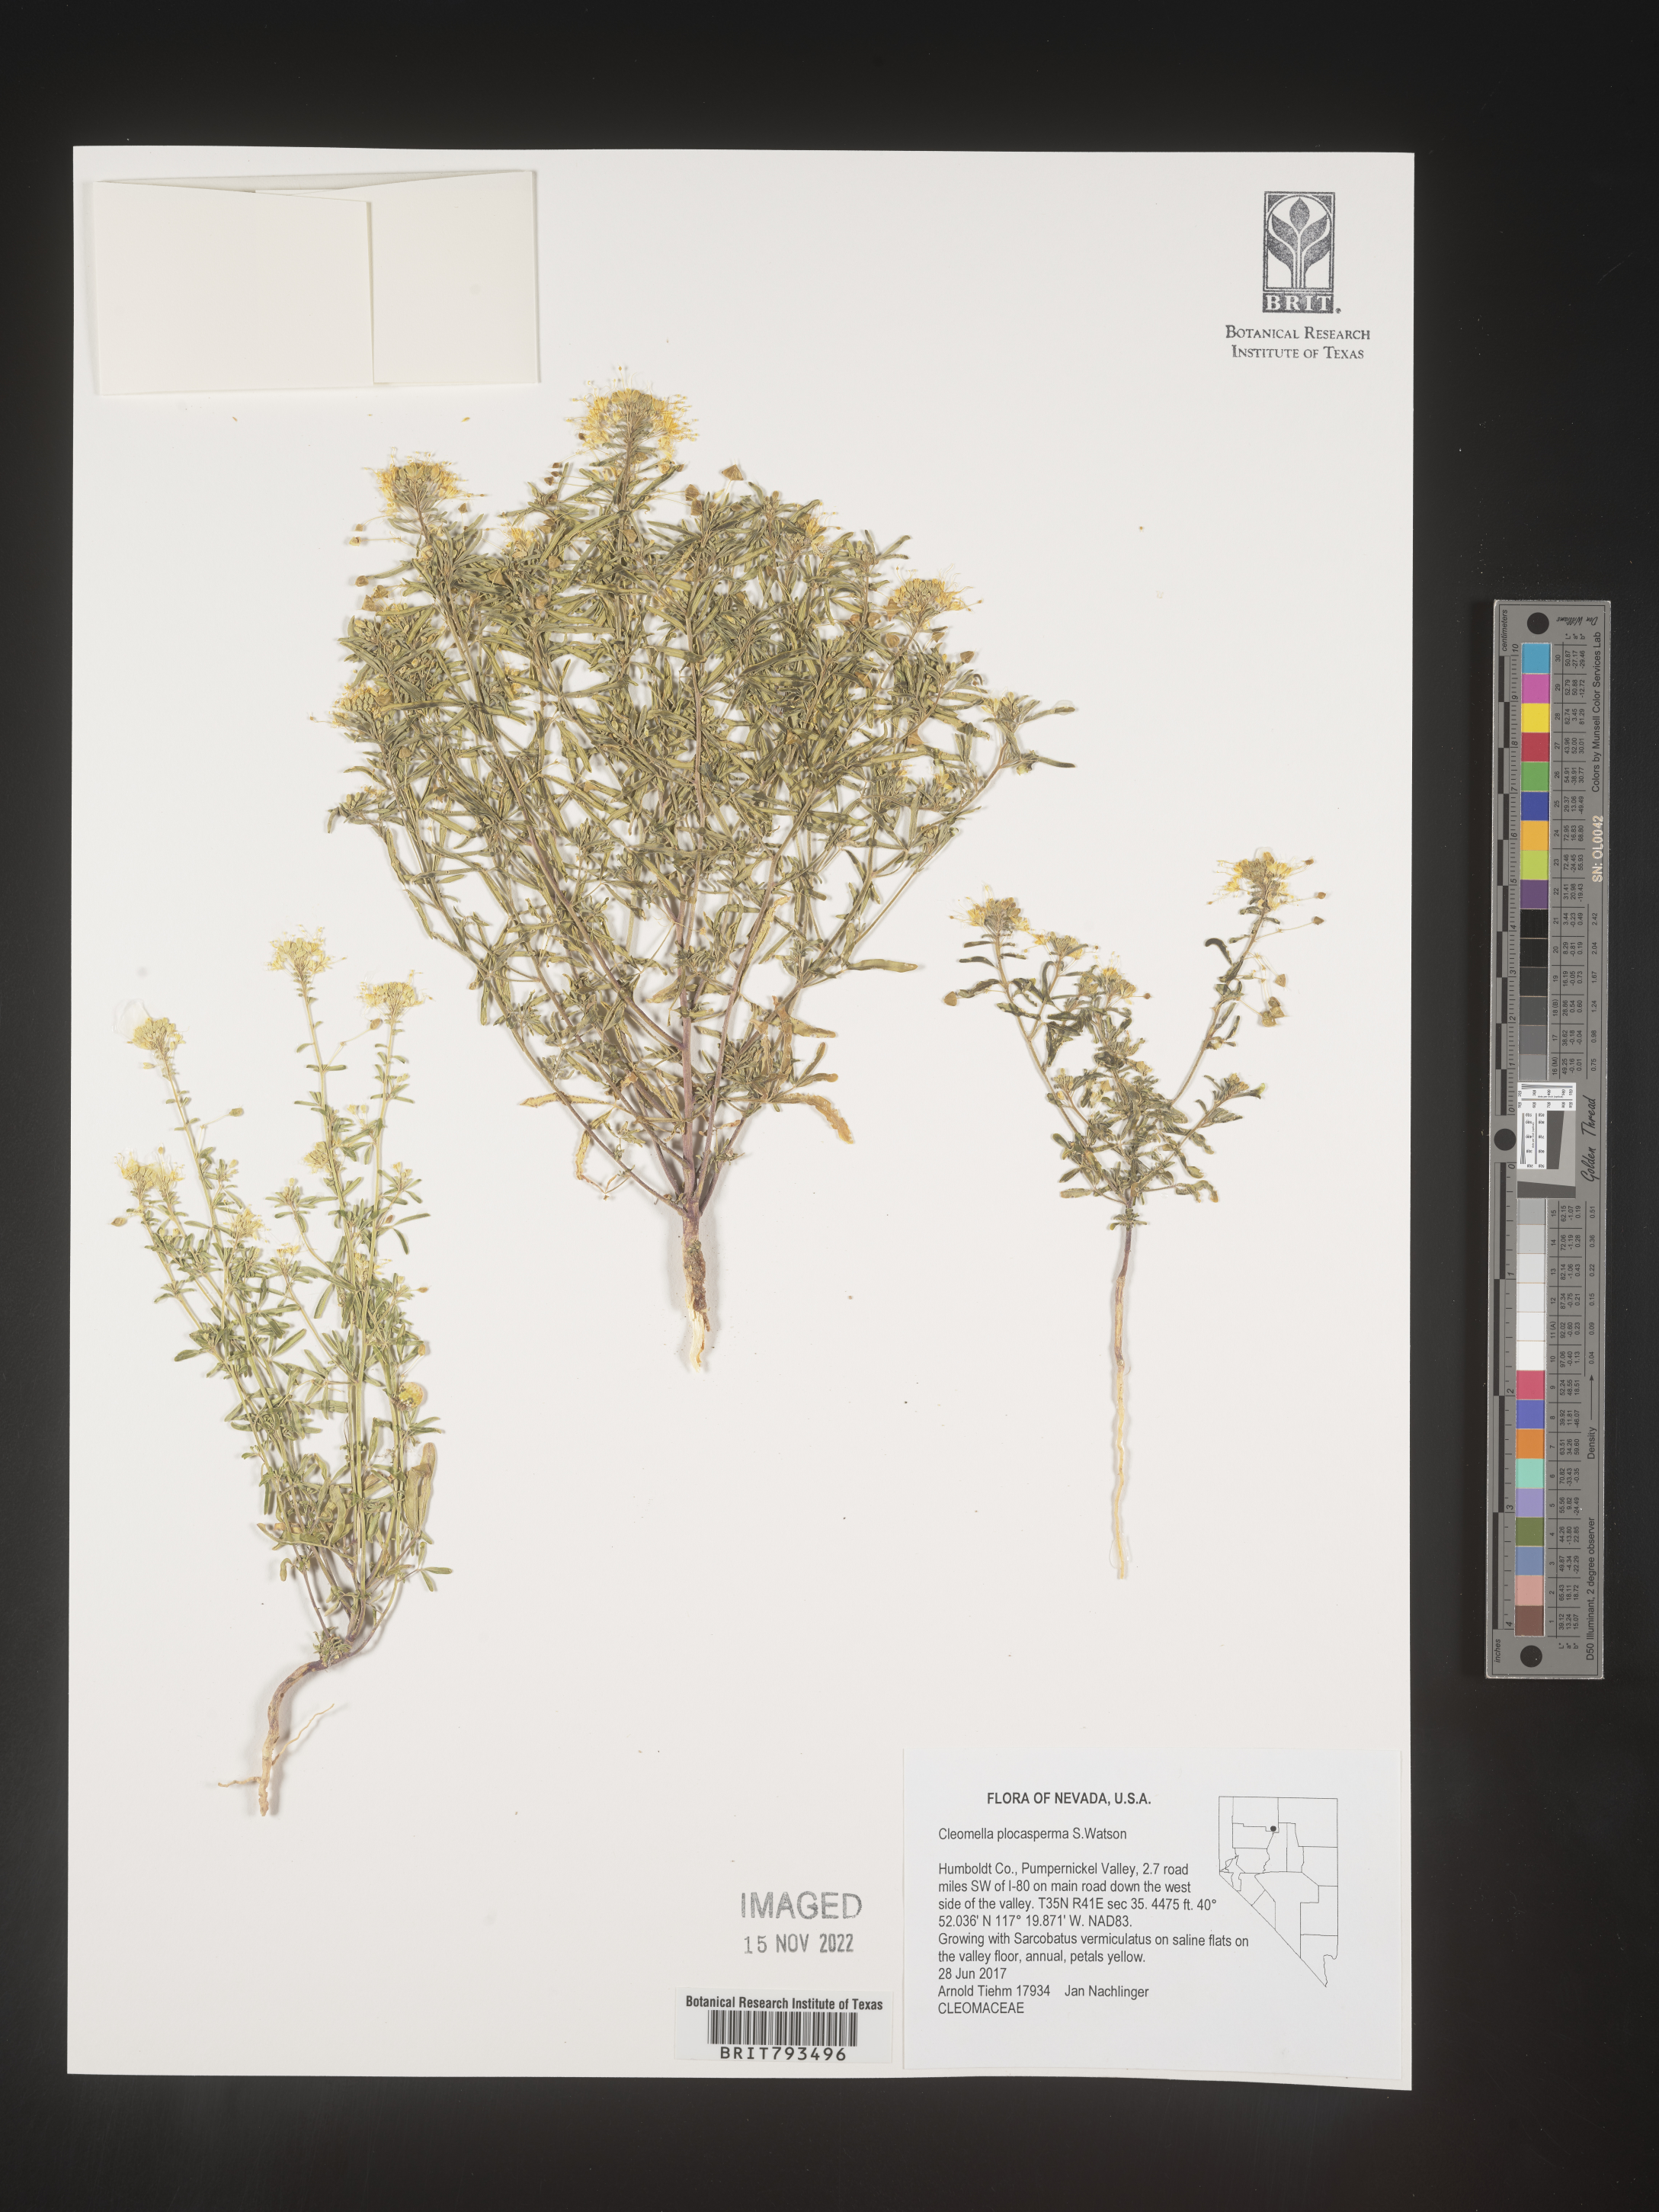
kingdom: Plantae
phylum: Tracheophyta
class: Magnoliopsida
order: Brassicales
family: Cleomaceae
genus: Cleomella
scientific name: Cleomella plocasperma
